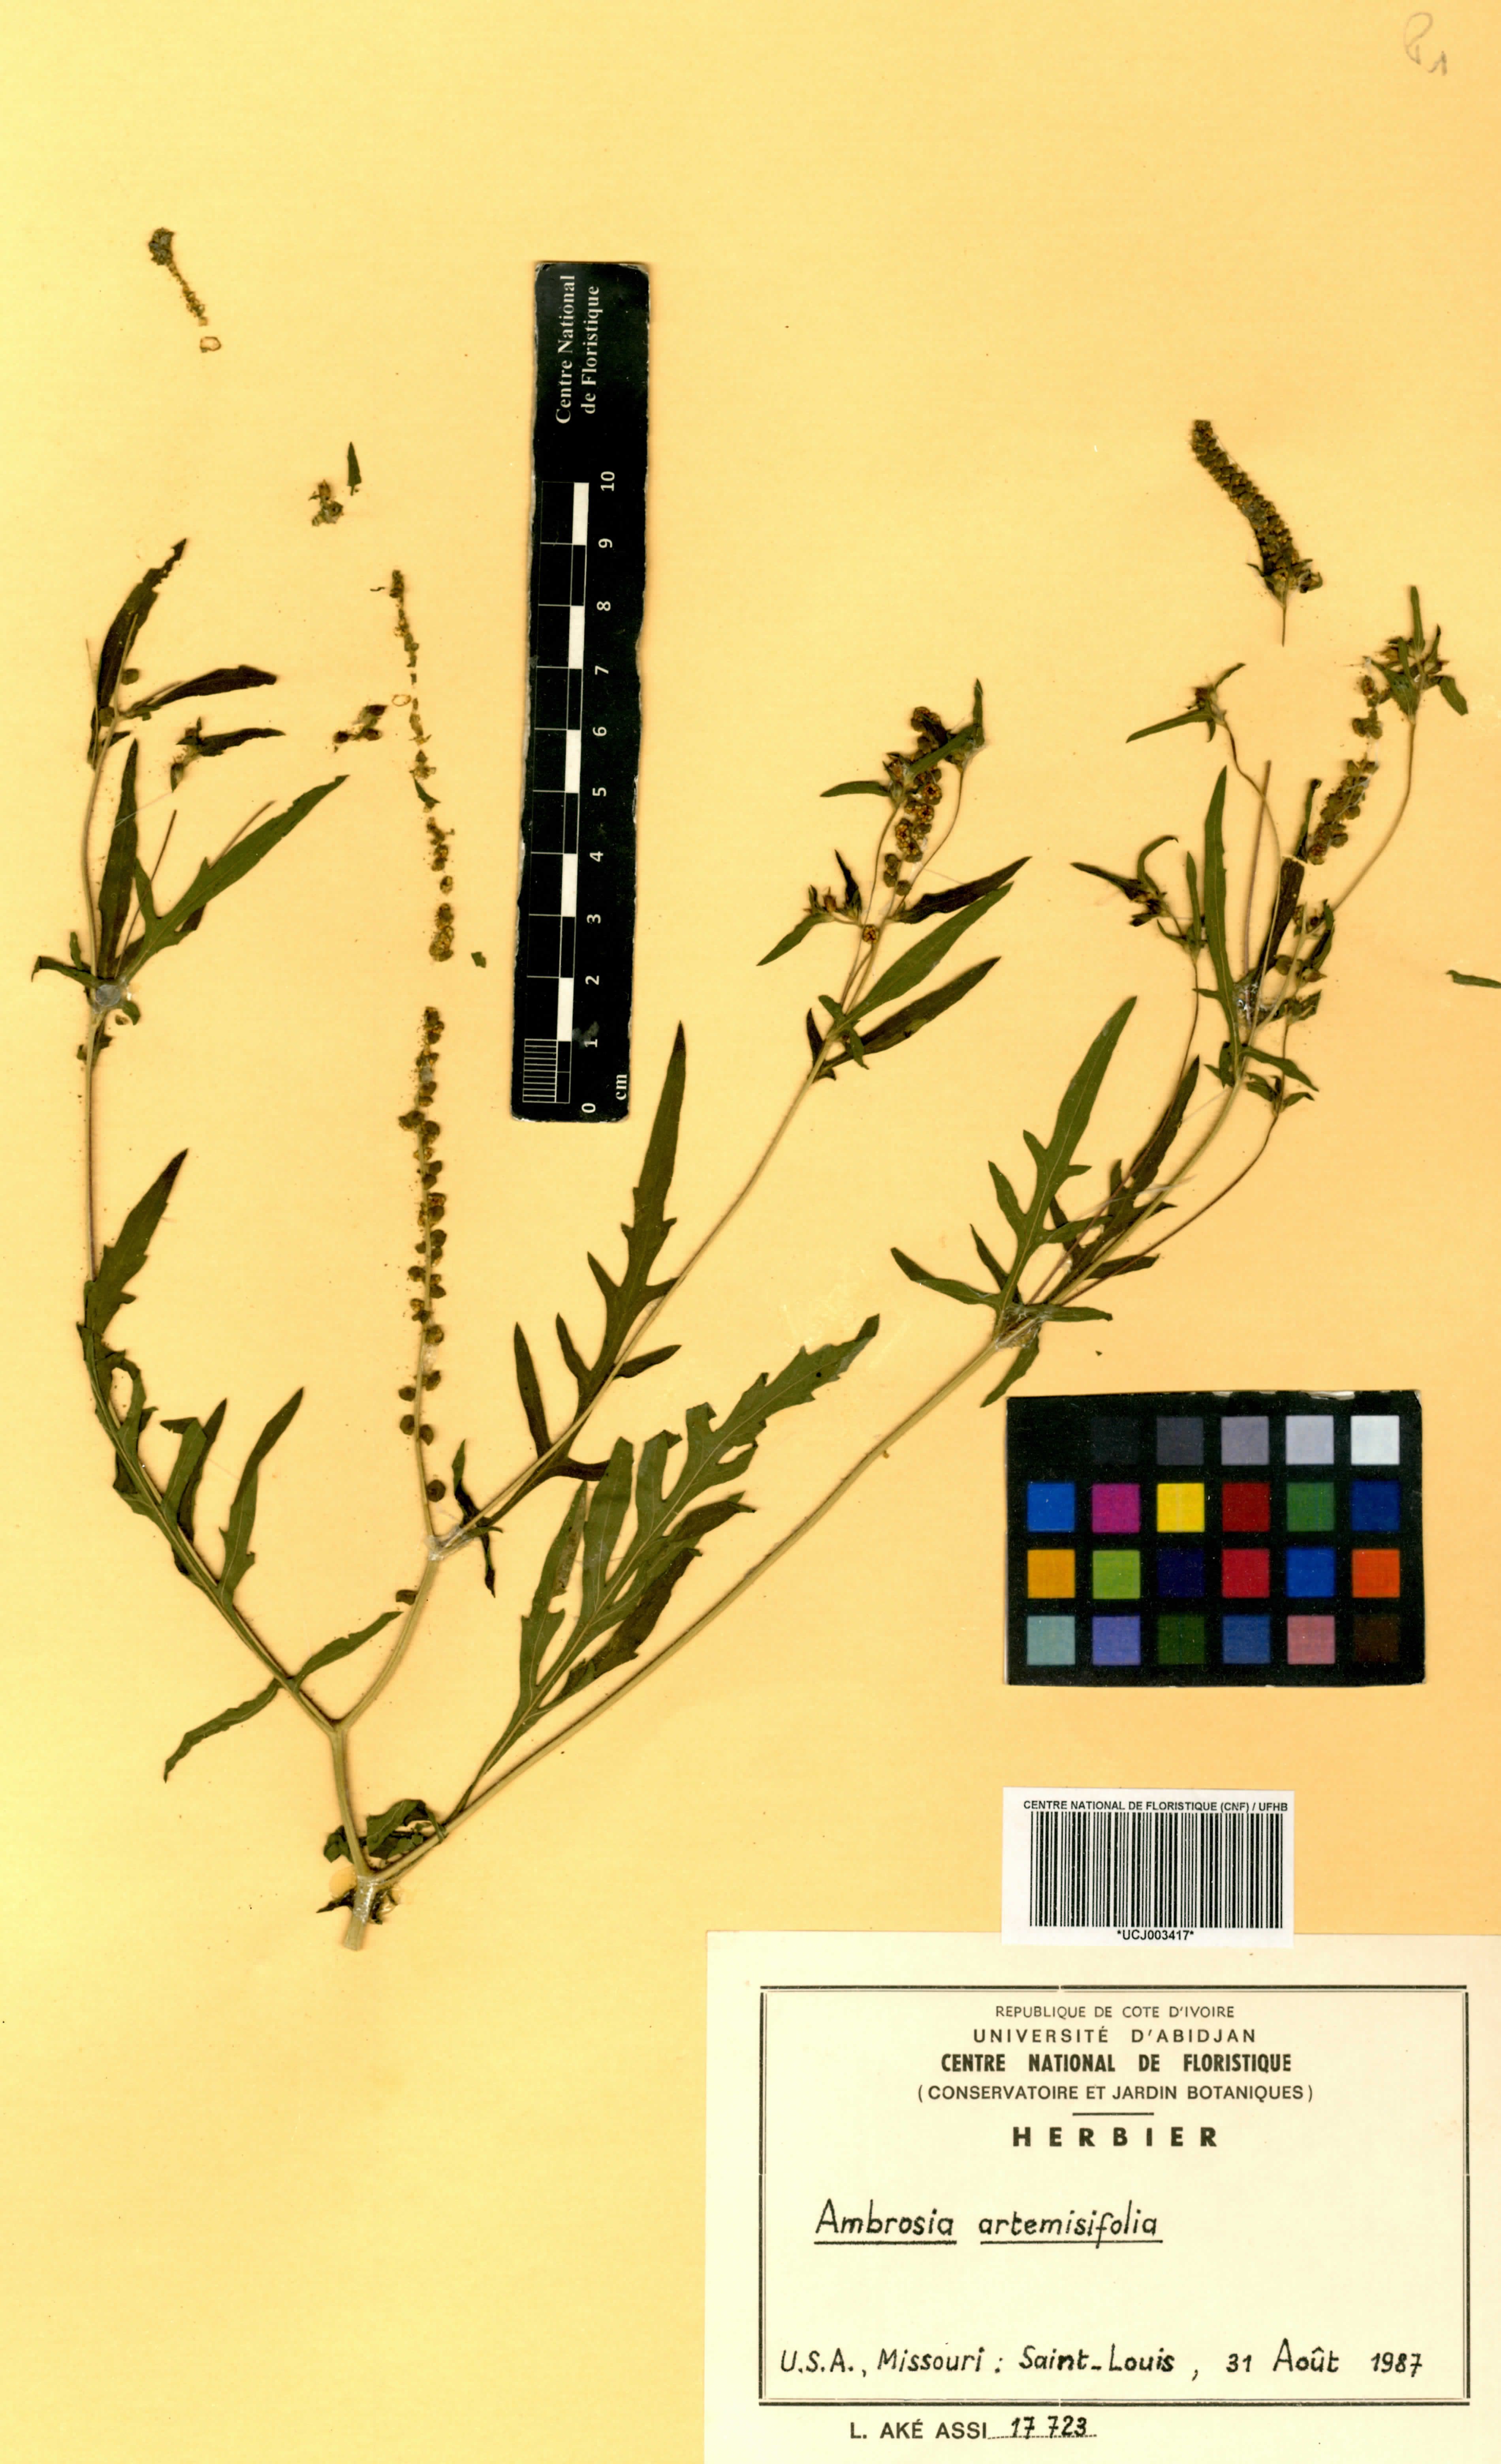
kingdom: Plantae
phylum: Tracheophyta
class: Magnoliopsida
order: Asterales
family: Asteraceae
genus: Ambrosia
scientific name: Ambrosia artemisiifolia
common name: Annual ragweed
